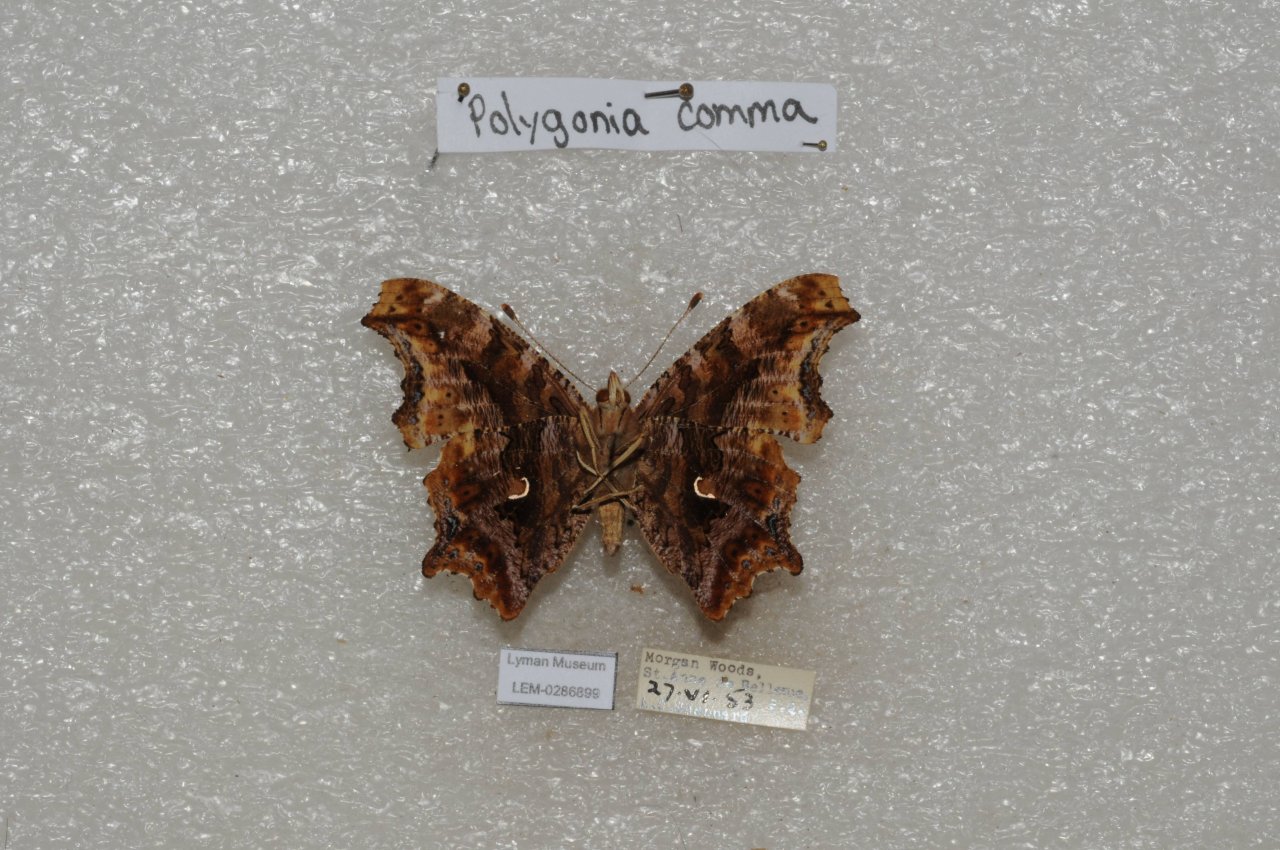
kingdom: Animalia
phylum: Arthropoda
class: Insecta
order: Lepidoptera
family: Nymphalidae
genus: Polygonia
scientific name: Polygonia comma
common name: Eastern Comma
